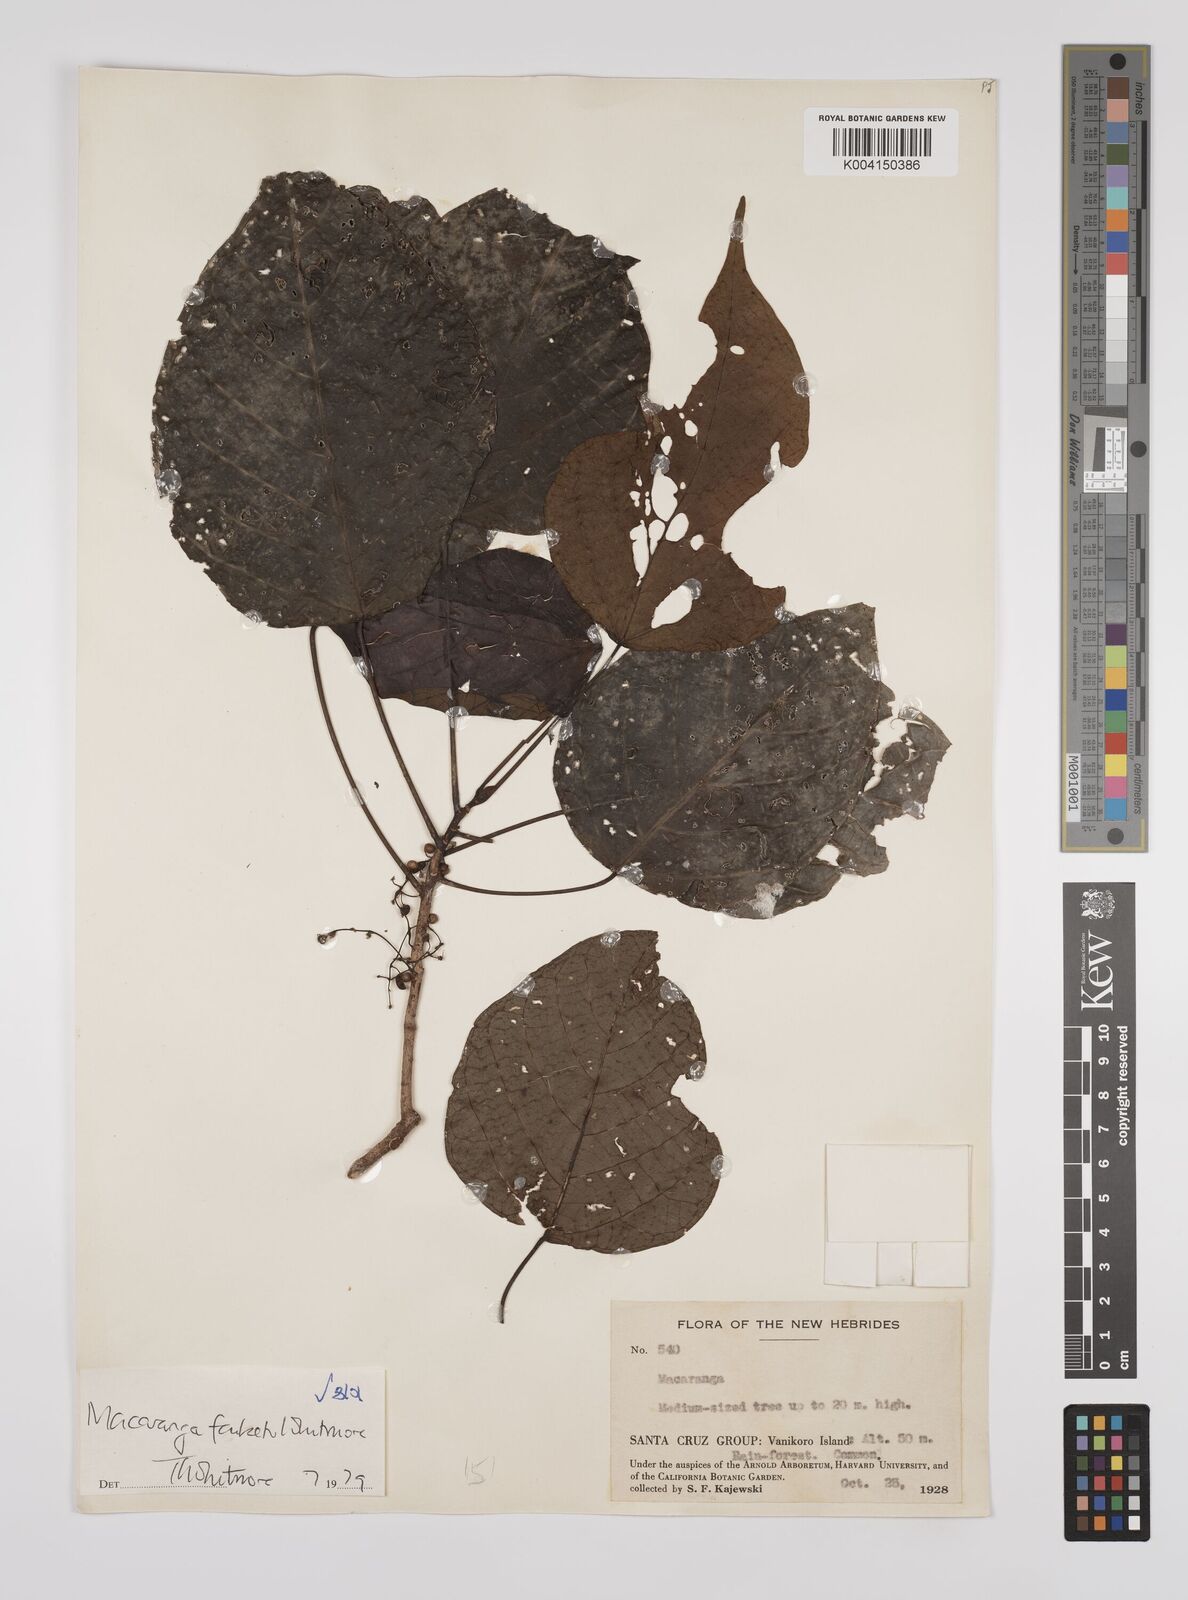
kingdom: Plantae
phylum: Tracheophyta
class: Magnoliopsida
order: Malpighiales
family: Euphorbiaceae
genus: Macaranga
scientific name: Macaranga faiketo
